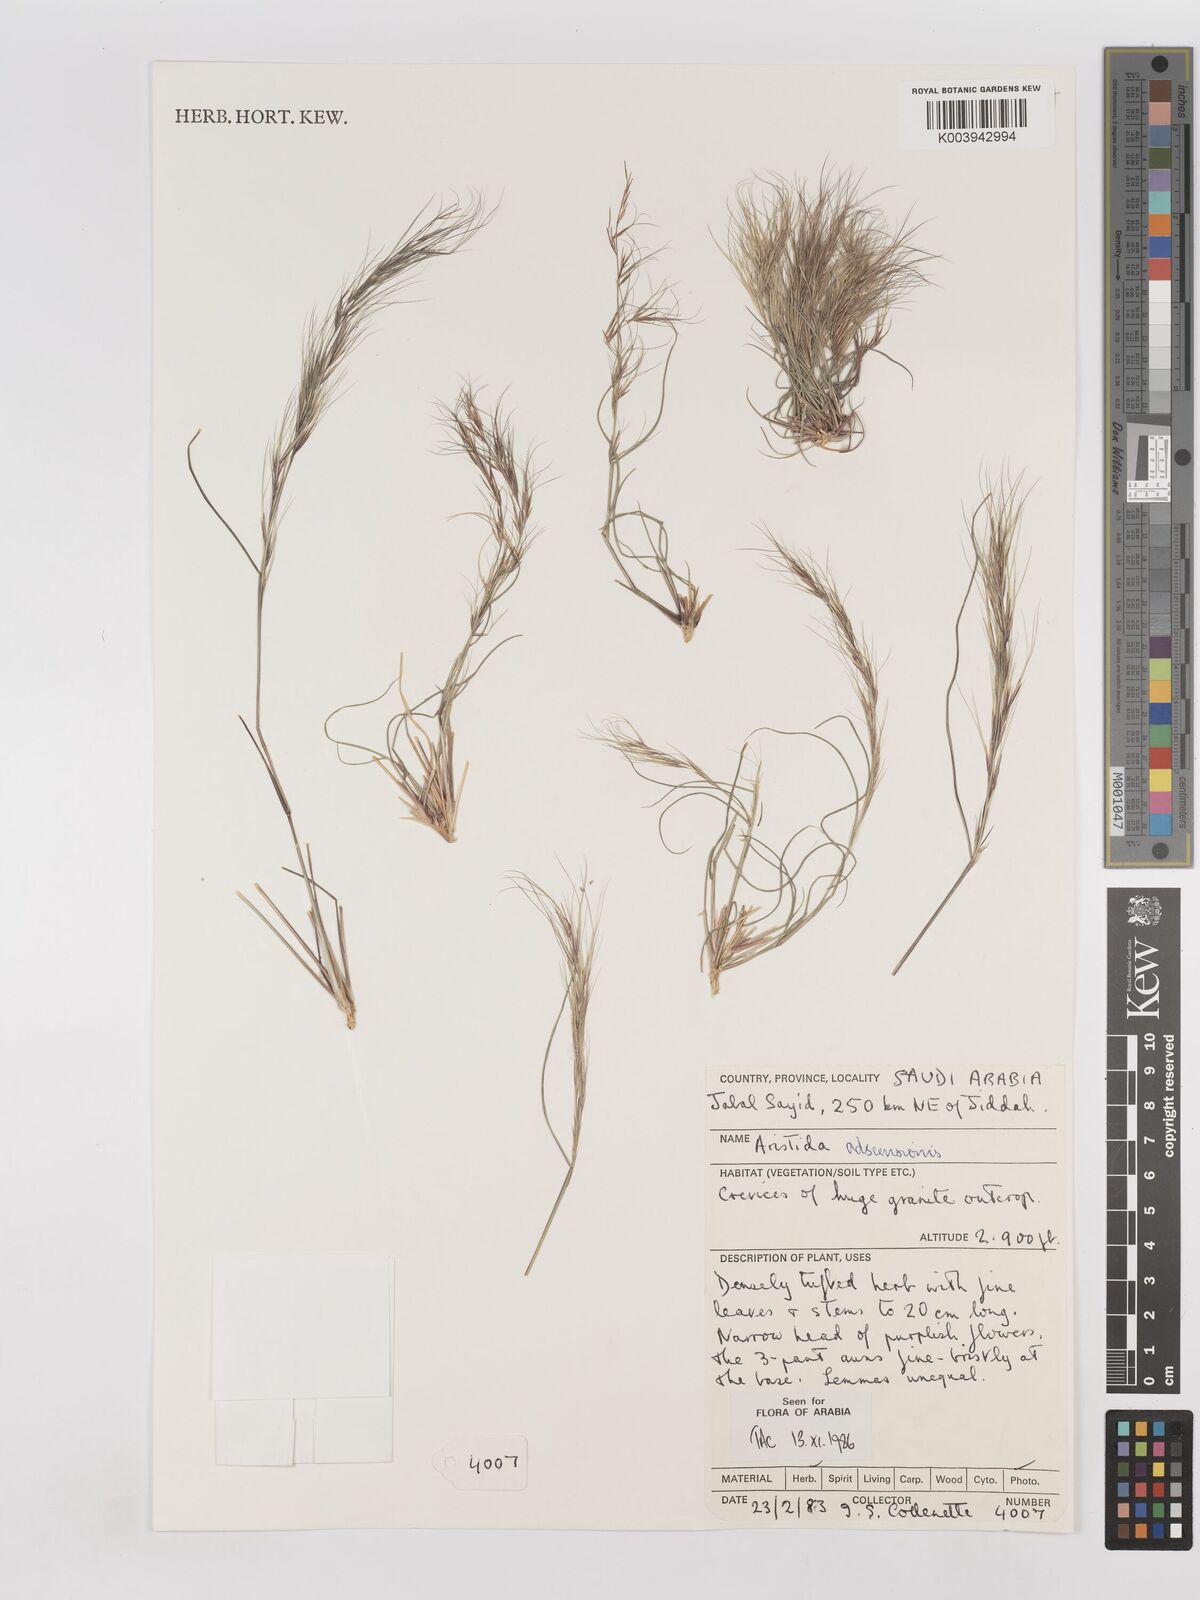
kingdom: Plantae
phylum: Tracheophyta
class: Liliopsida
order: Poales
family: Poaceae
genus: Aristida
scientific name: Aristida adscensionis
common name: Sixweeks threeawn
